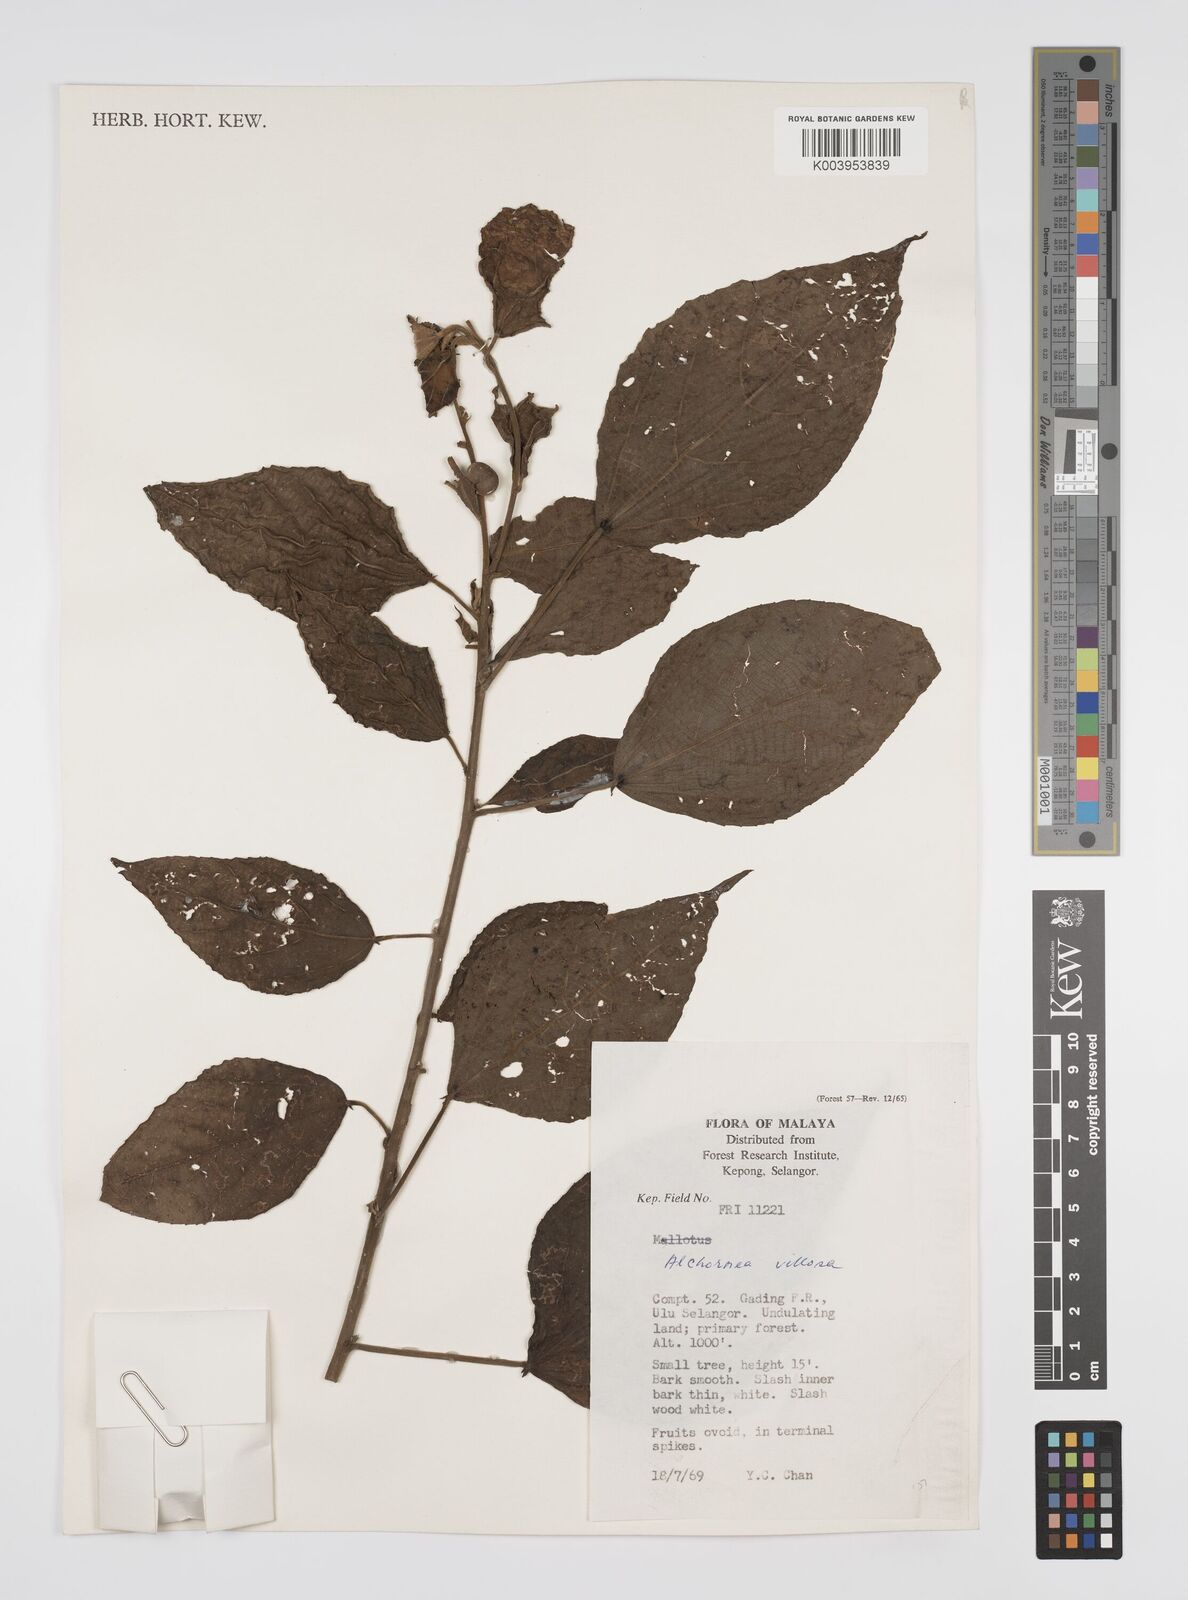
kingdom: Plantae
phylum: Tracheophyta
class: Magnoliopsida
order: Malpighiales
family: Euphorbiaceae
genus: Alchornea
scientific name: Alchornea tiliifolia
